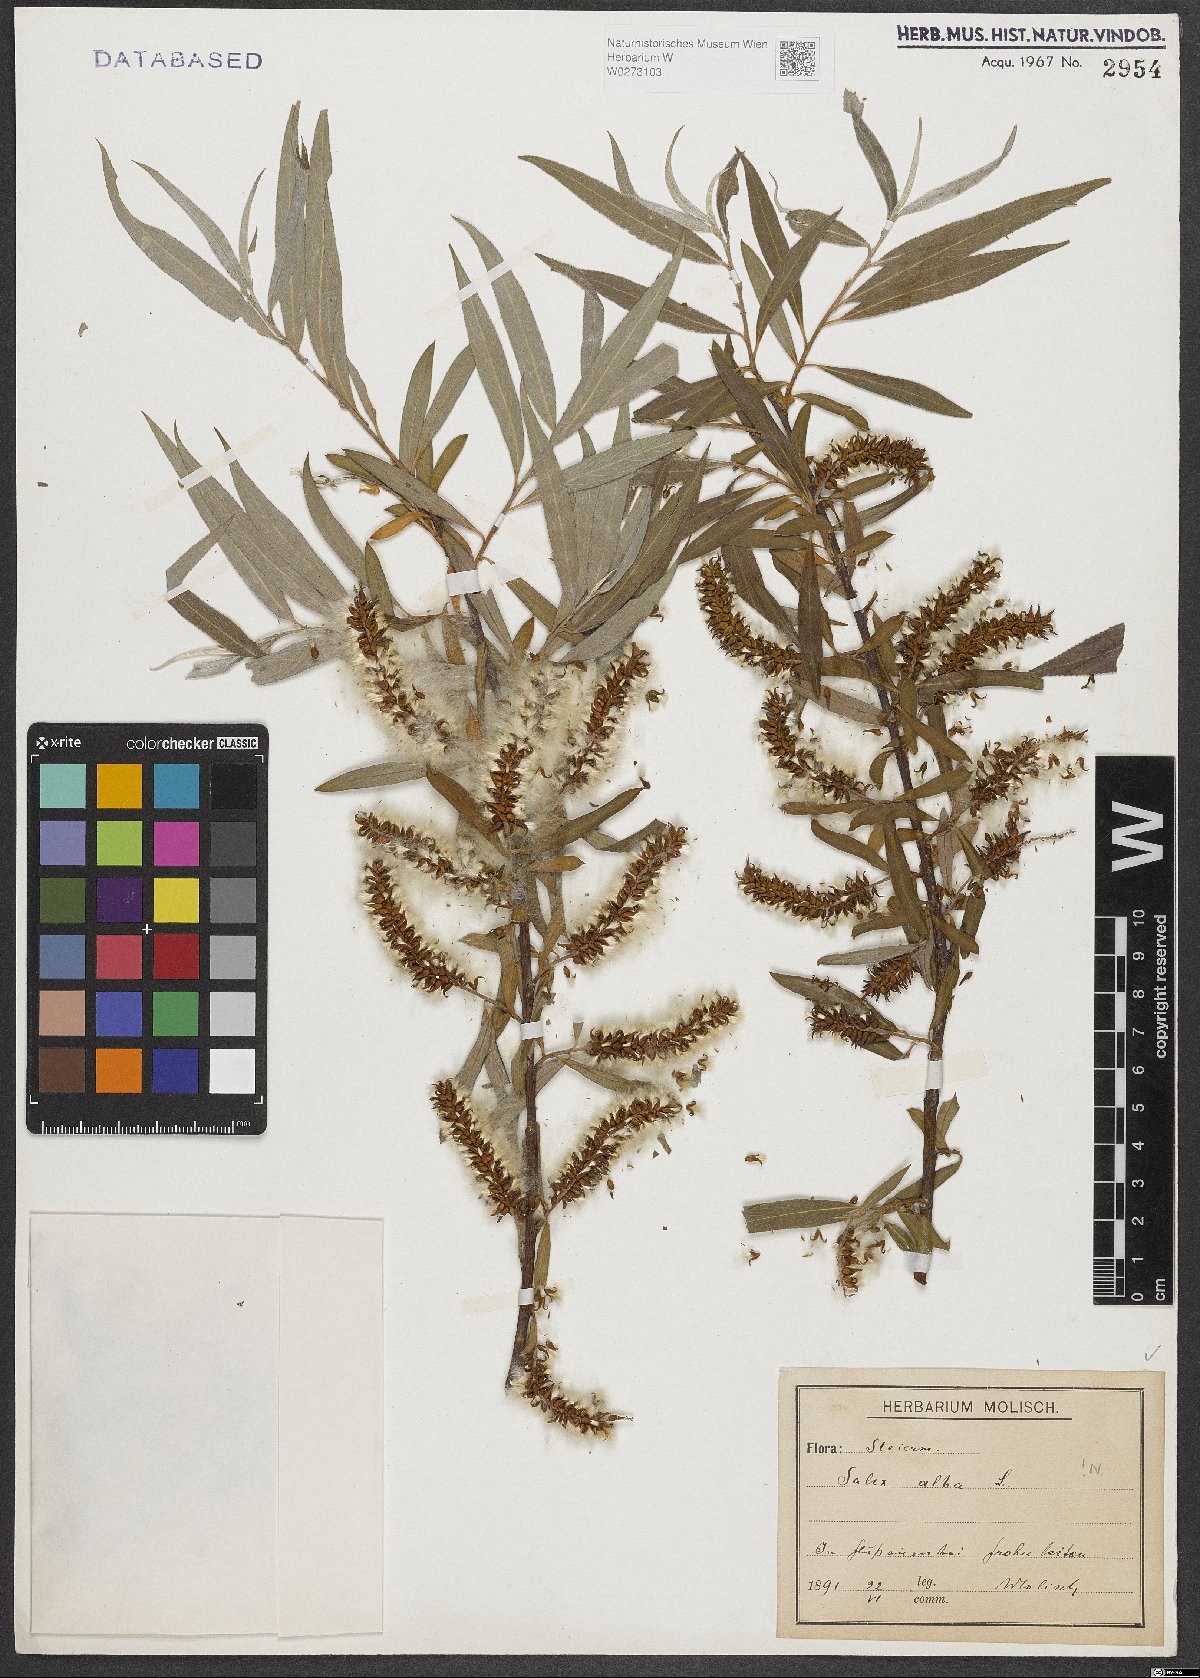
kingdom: Plantae
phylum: Tracheophyta
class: Magnoliopsida
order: Malpighiales
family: Salicaceae
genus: Salix
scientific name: Salix alba
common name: White willow
